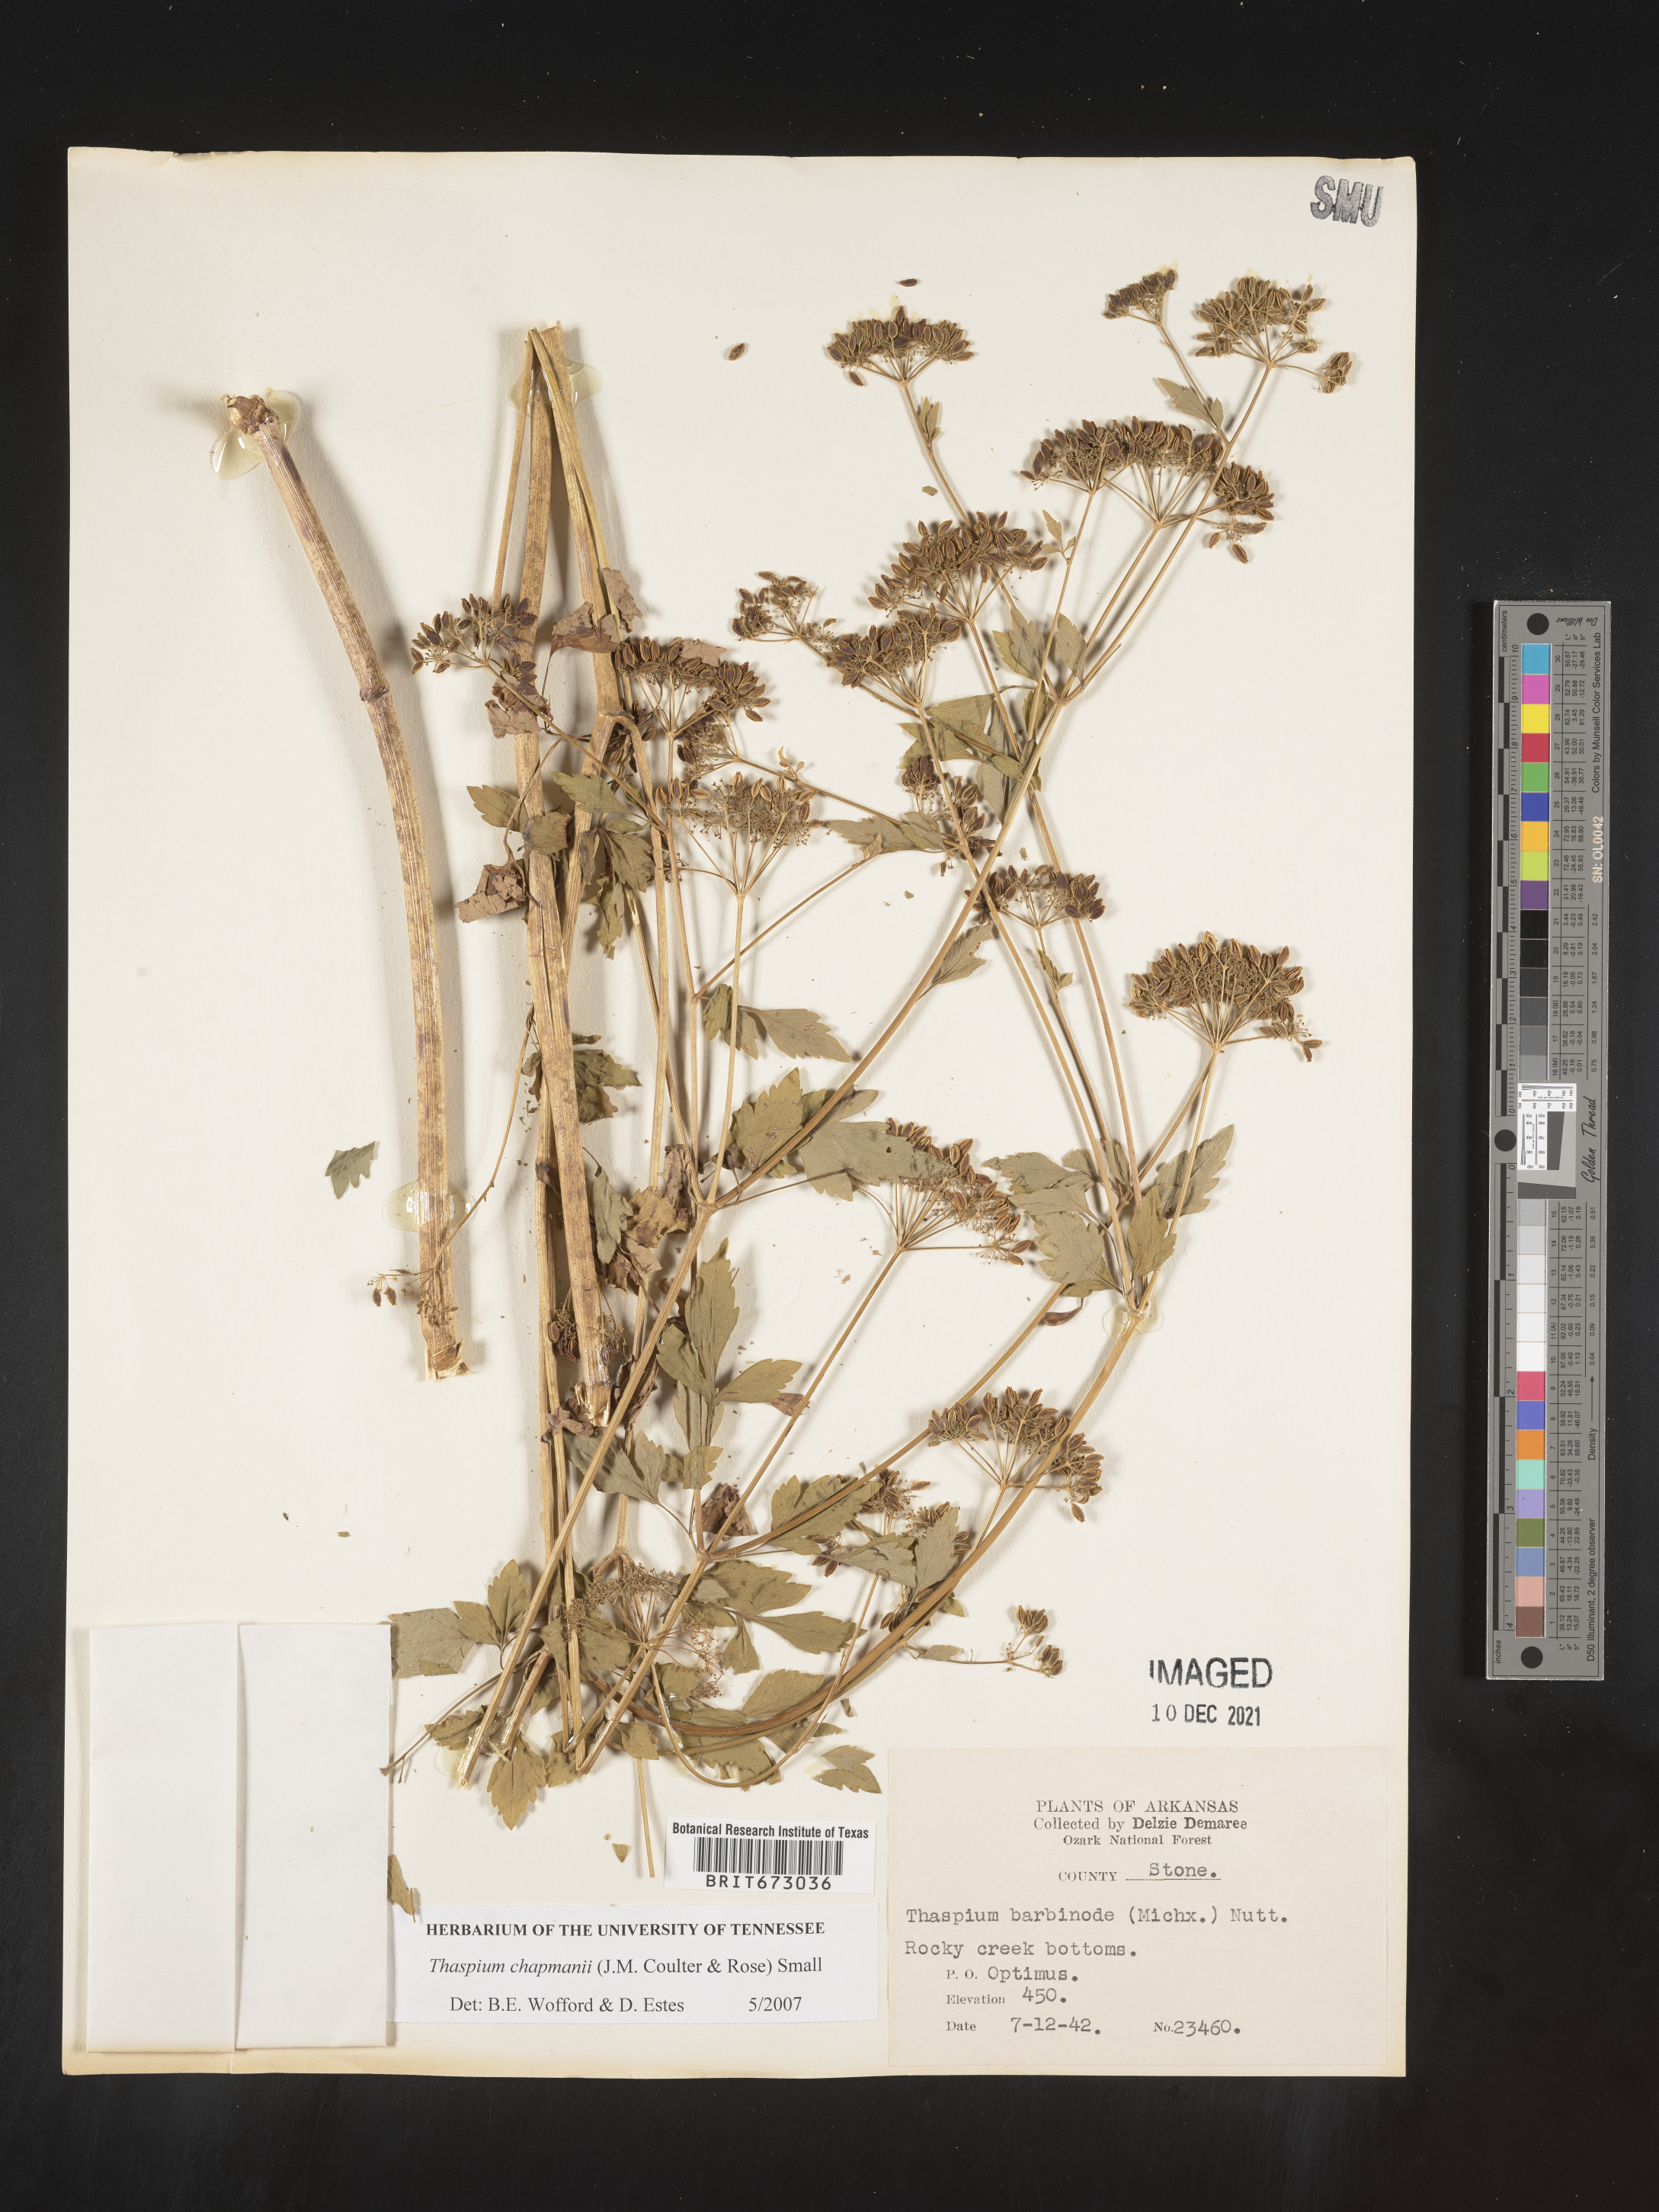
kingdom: Plantae
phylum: Tracheophyta
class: Magnoliopsida
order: Apiales
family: Apiaceae
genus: Thaspium
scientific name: Thaspium barbinode
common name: Bearded meadow-parsnip
